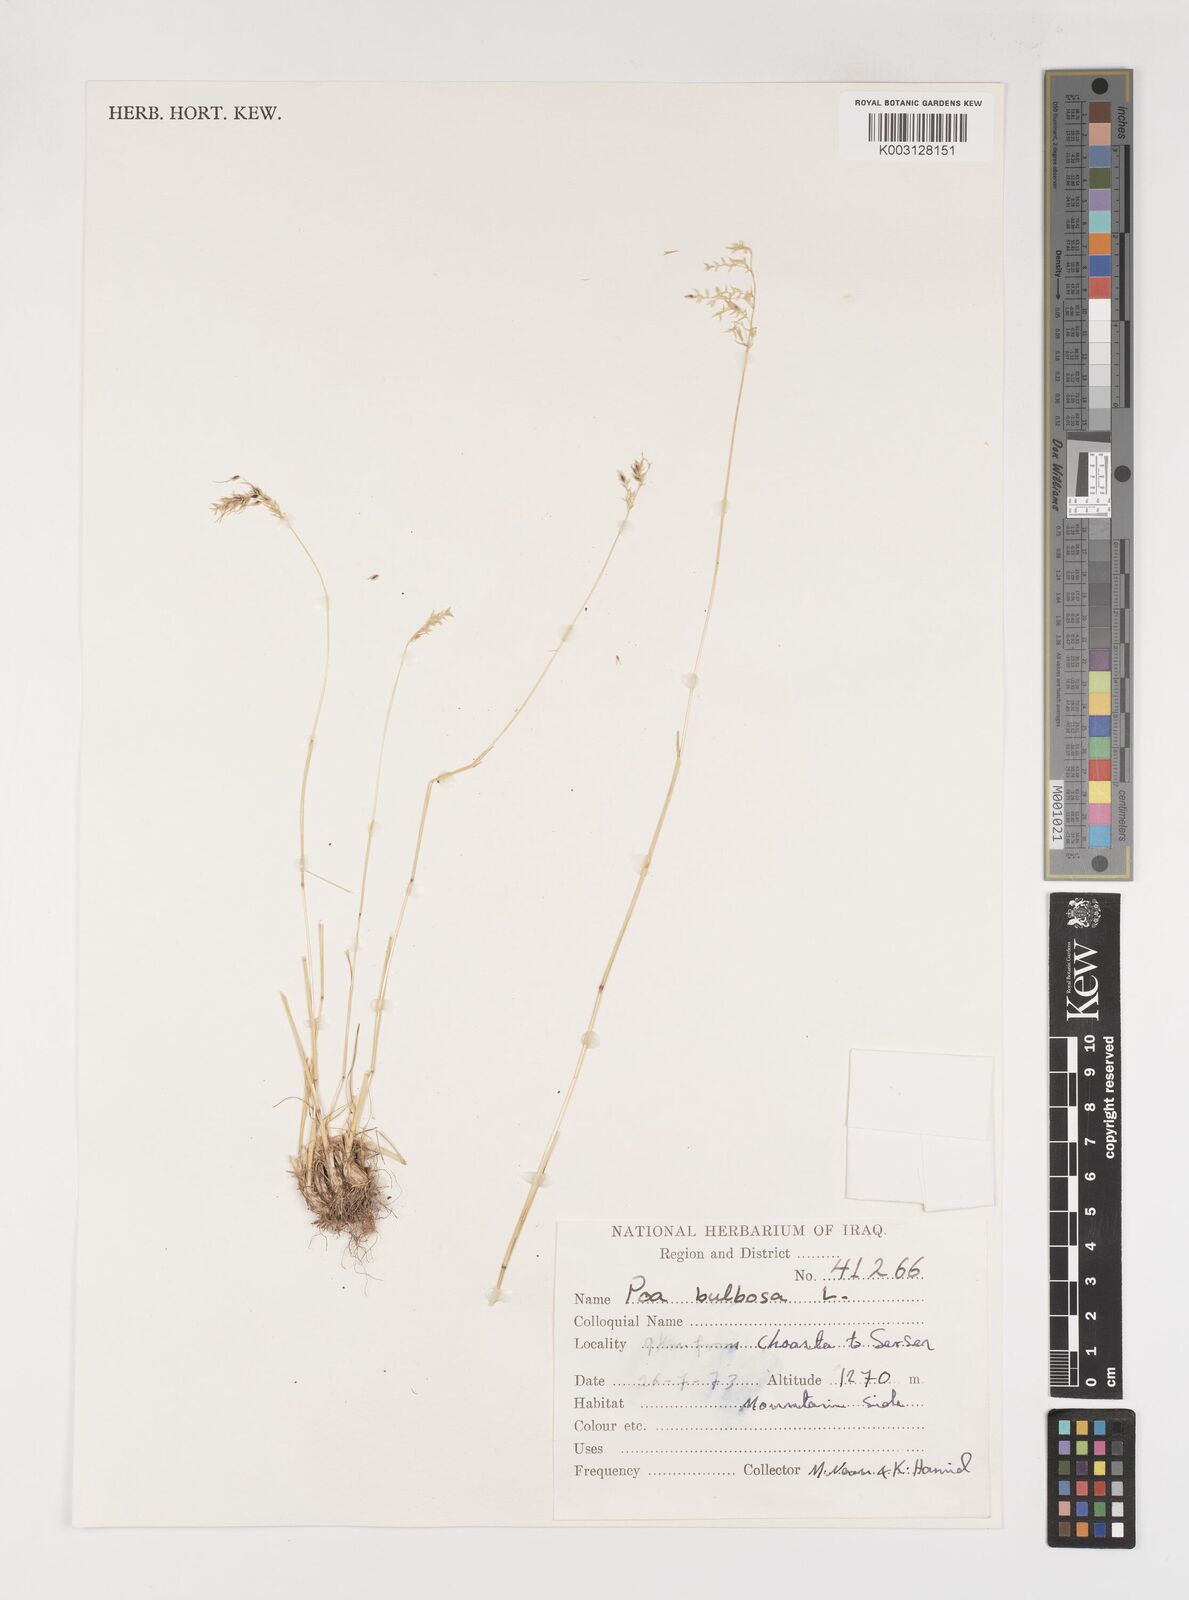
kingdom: Plantae
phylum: Tracheophyta
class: Liliopsida
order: Poales
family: Poaceae
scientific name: Poaceae
